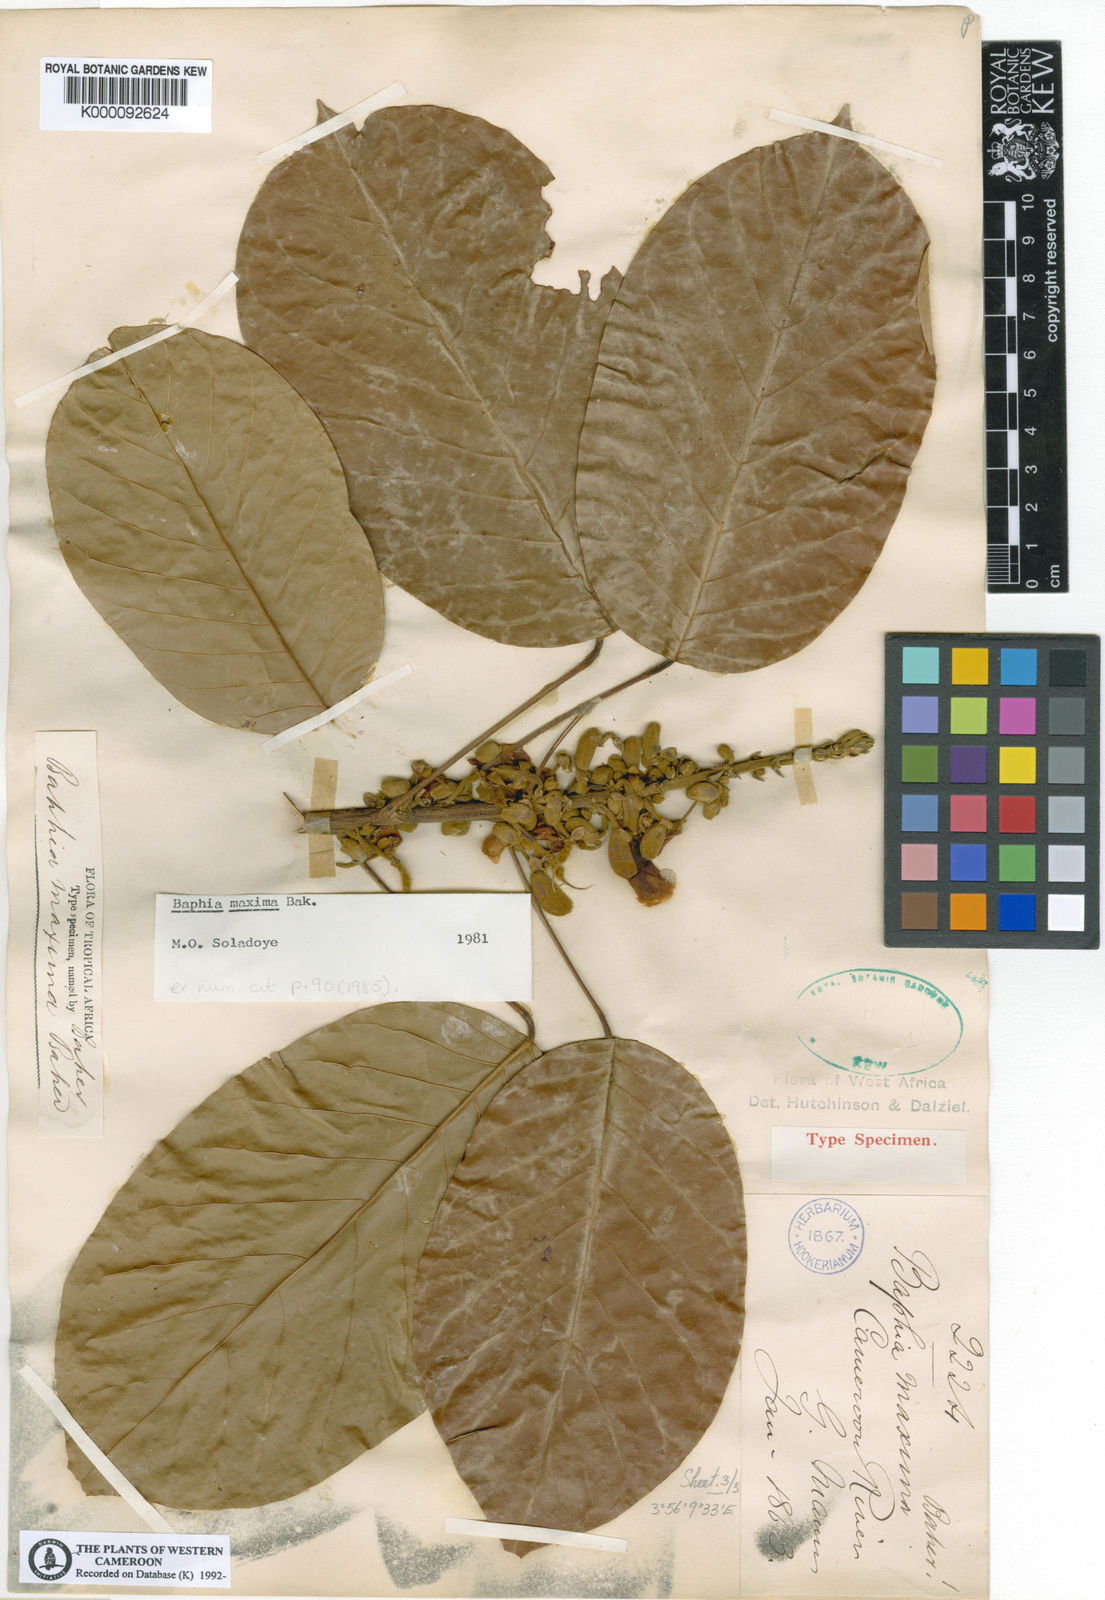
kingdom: Plantae
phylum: Tracheophyta
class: Magnoliopsida
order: Fabales
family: Fabaceae
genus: Baphia
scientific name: Baphia maxima
